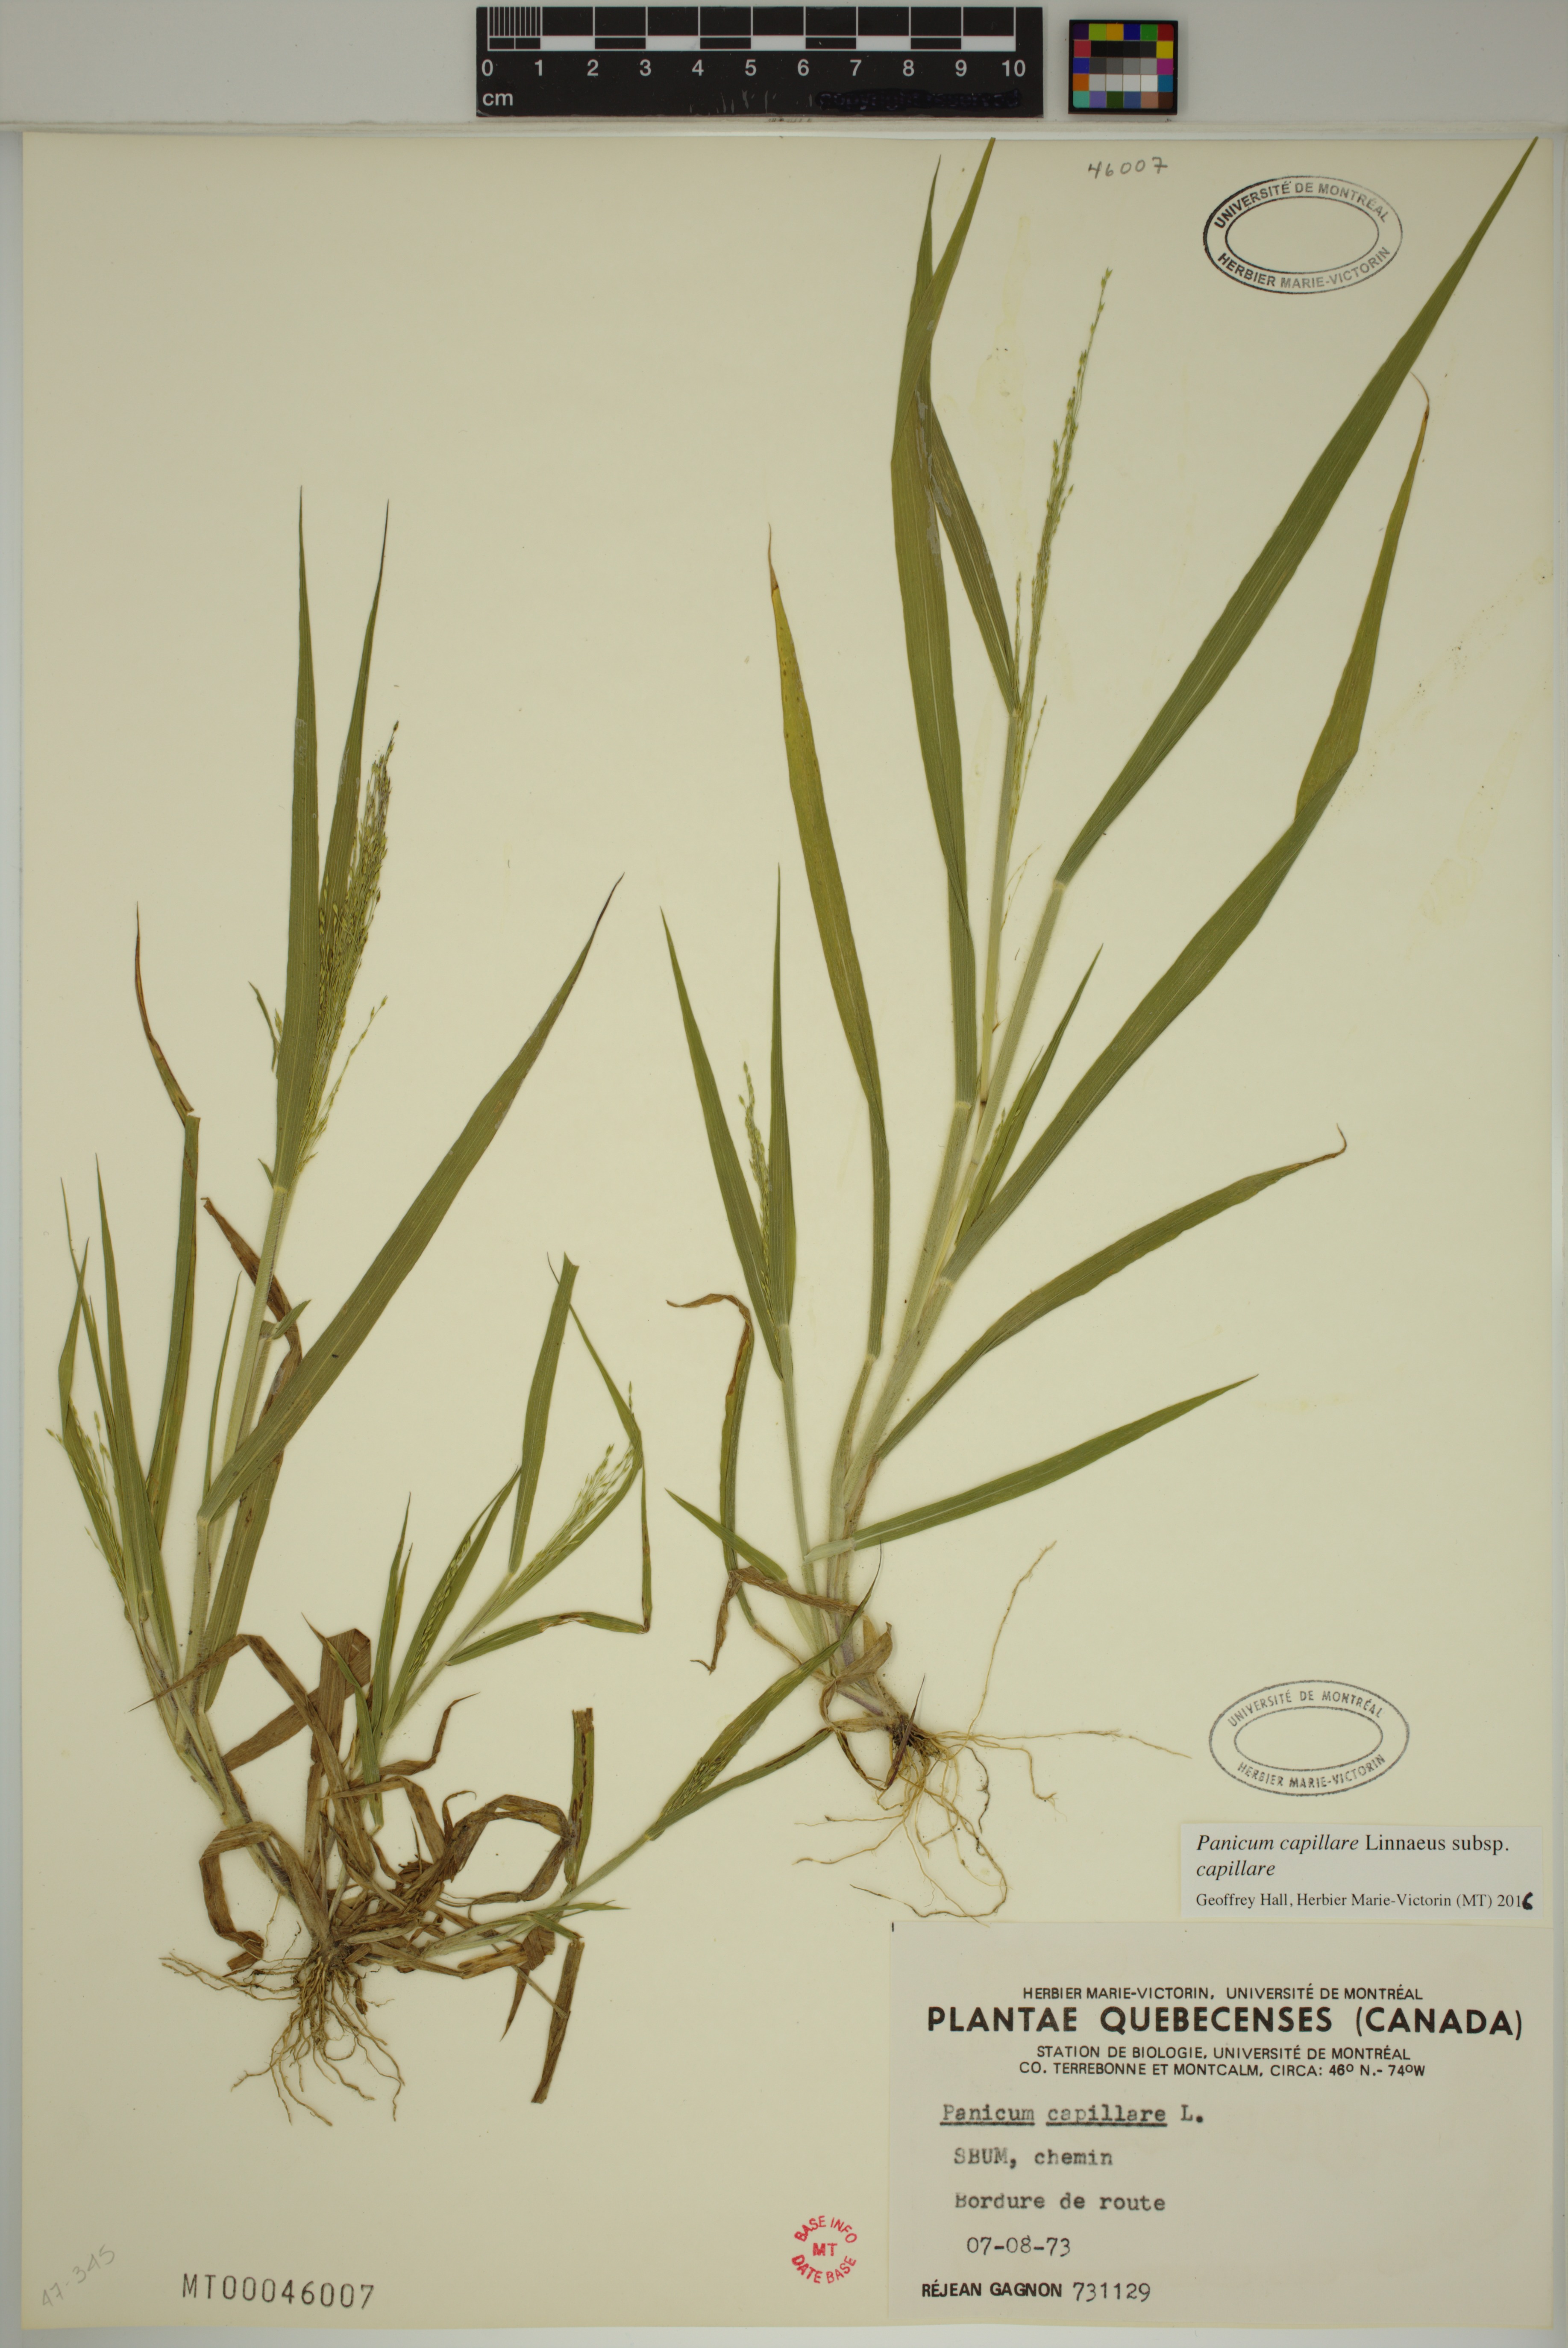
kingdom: Plantae
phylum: Tracheophyta
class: Liliopsida
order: Poales
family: Poaceae
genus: Panicum
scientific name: Panicum capillare
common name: Witch-grass
